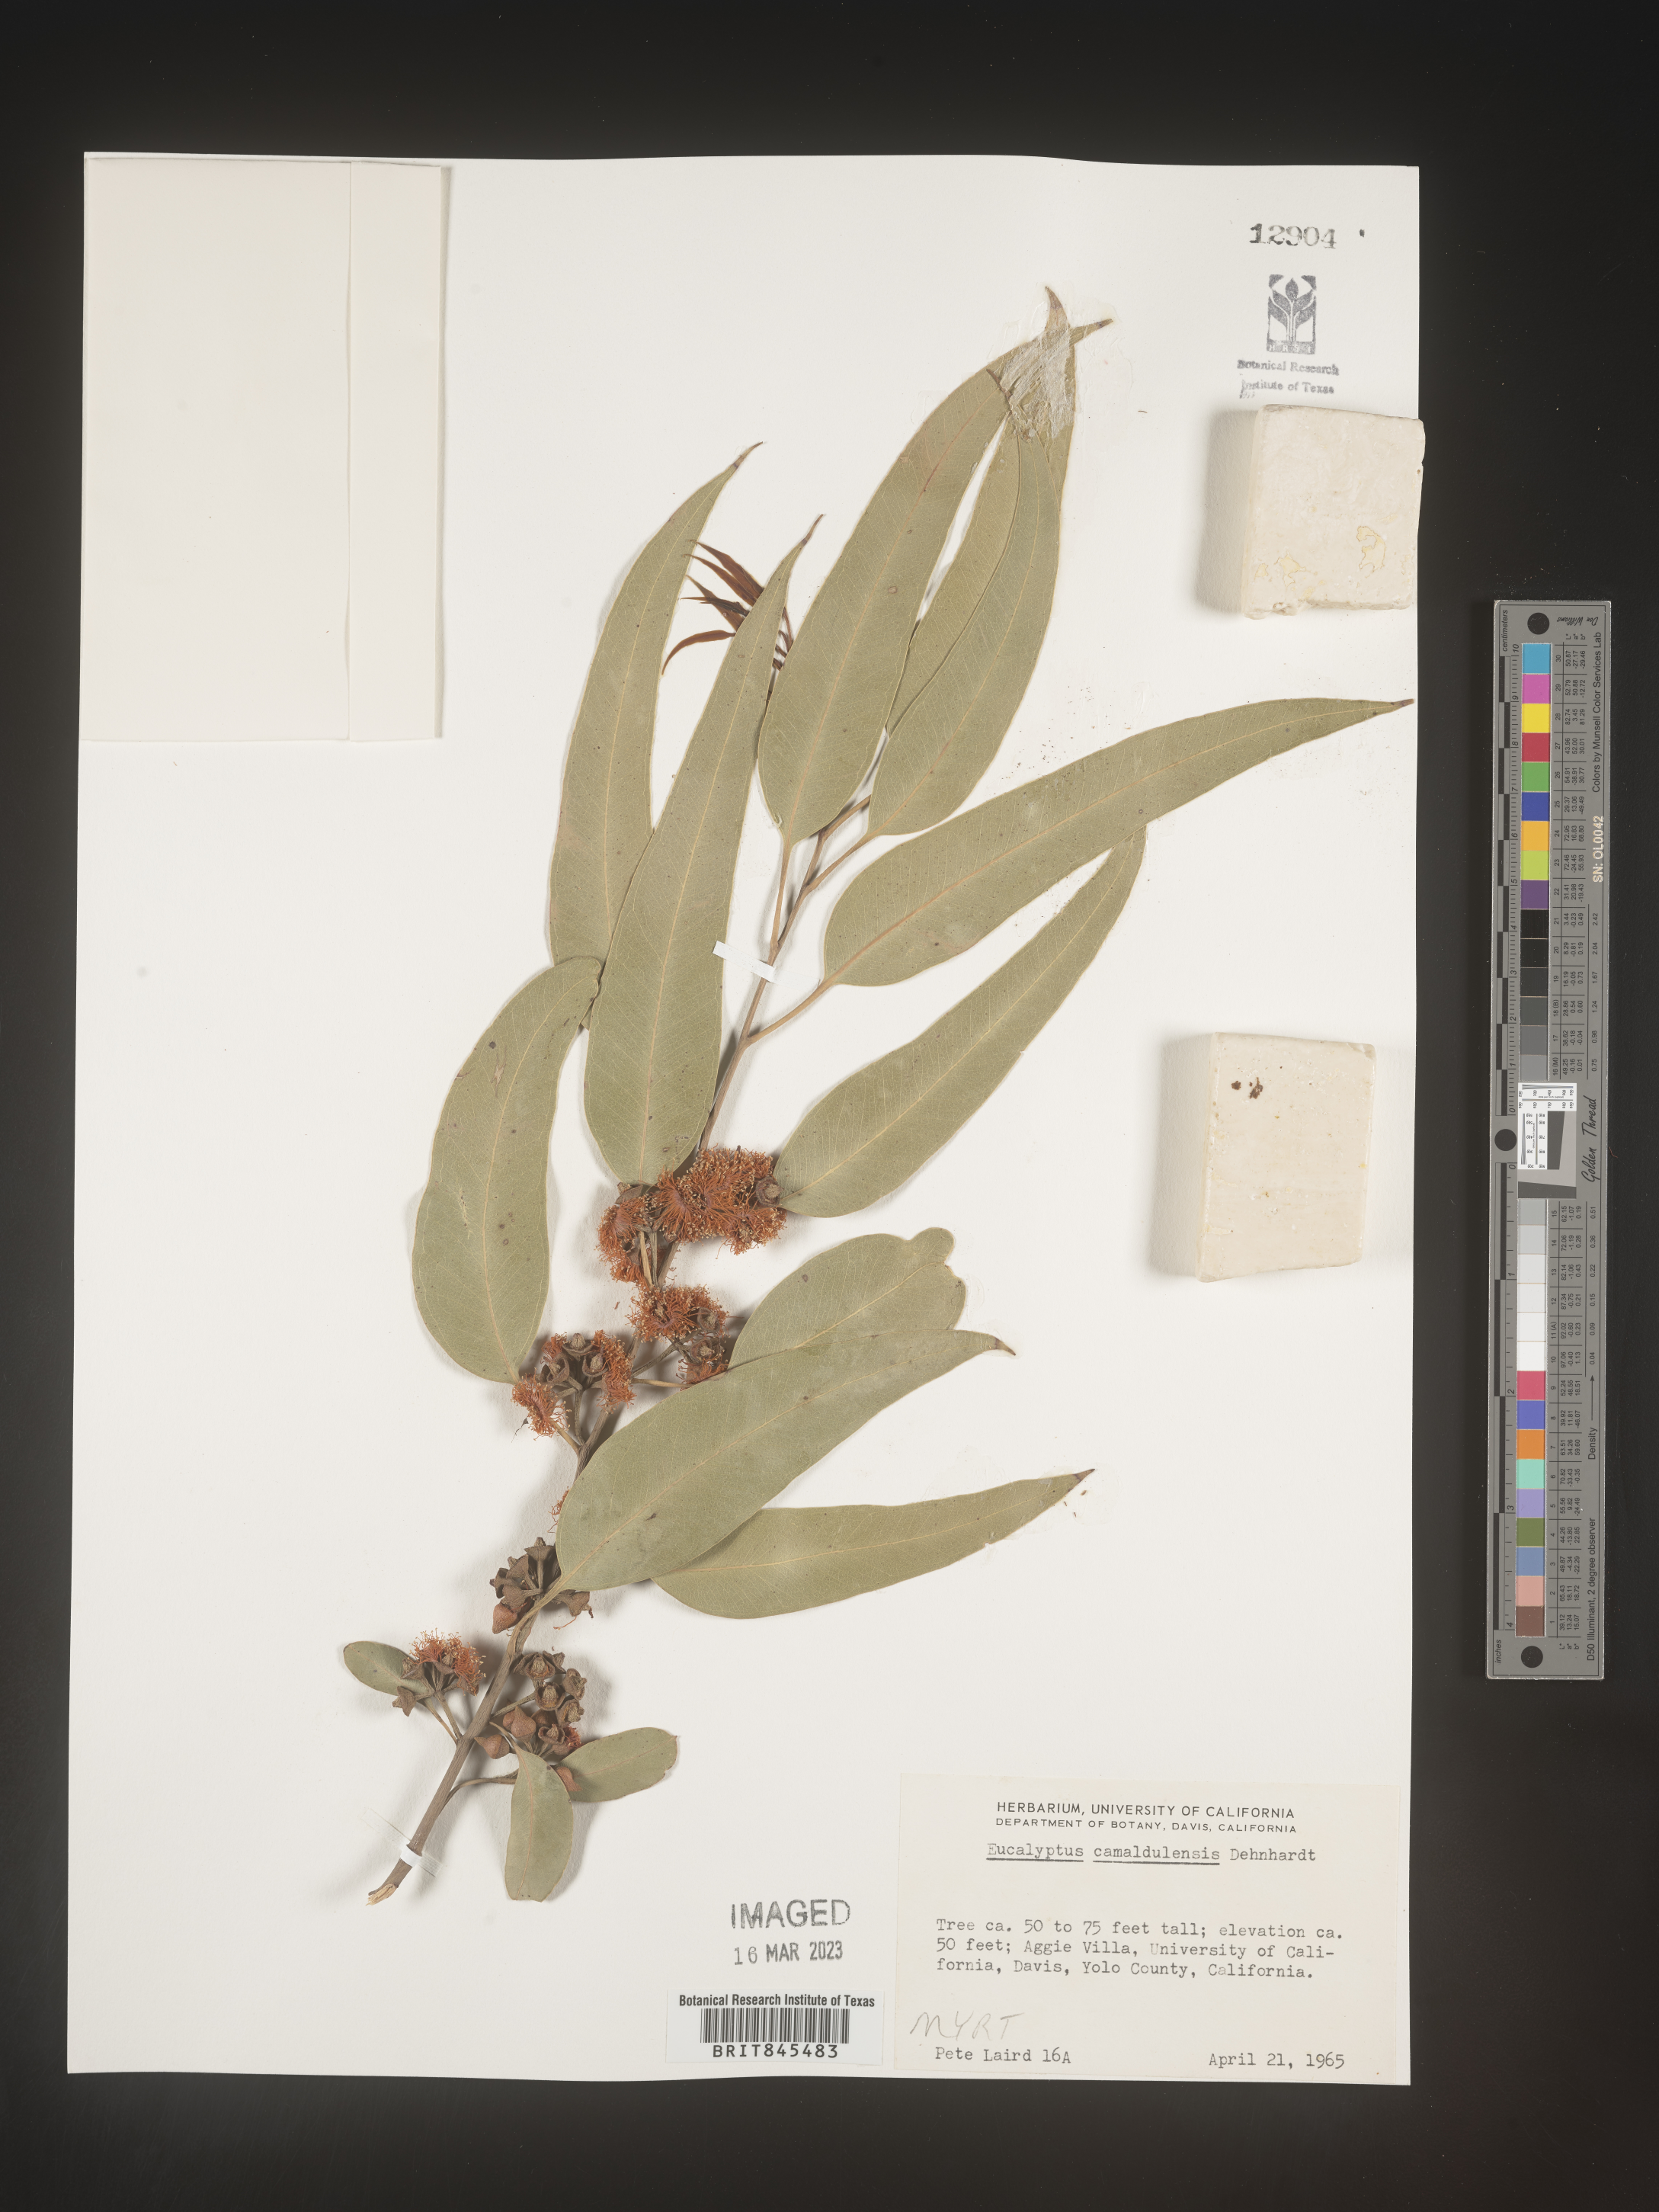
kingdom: Plantae
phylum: Tracheophyta
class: Magnoliopsida
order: Myrtales
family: Myrtaceae
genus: Eucalyptus
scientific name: Eucalyptus
